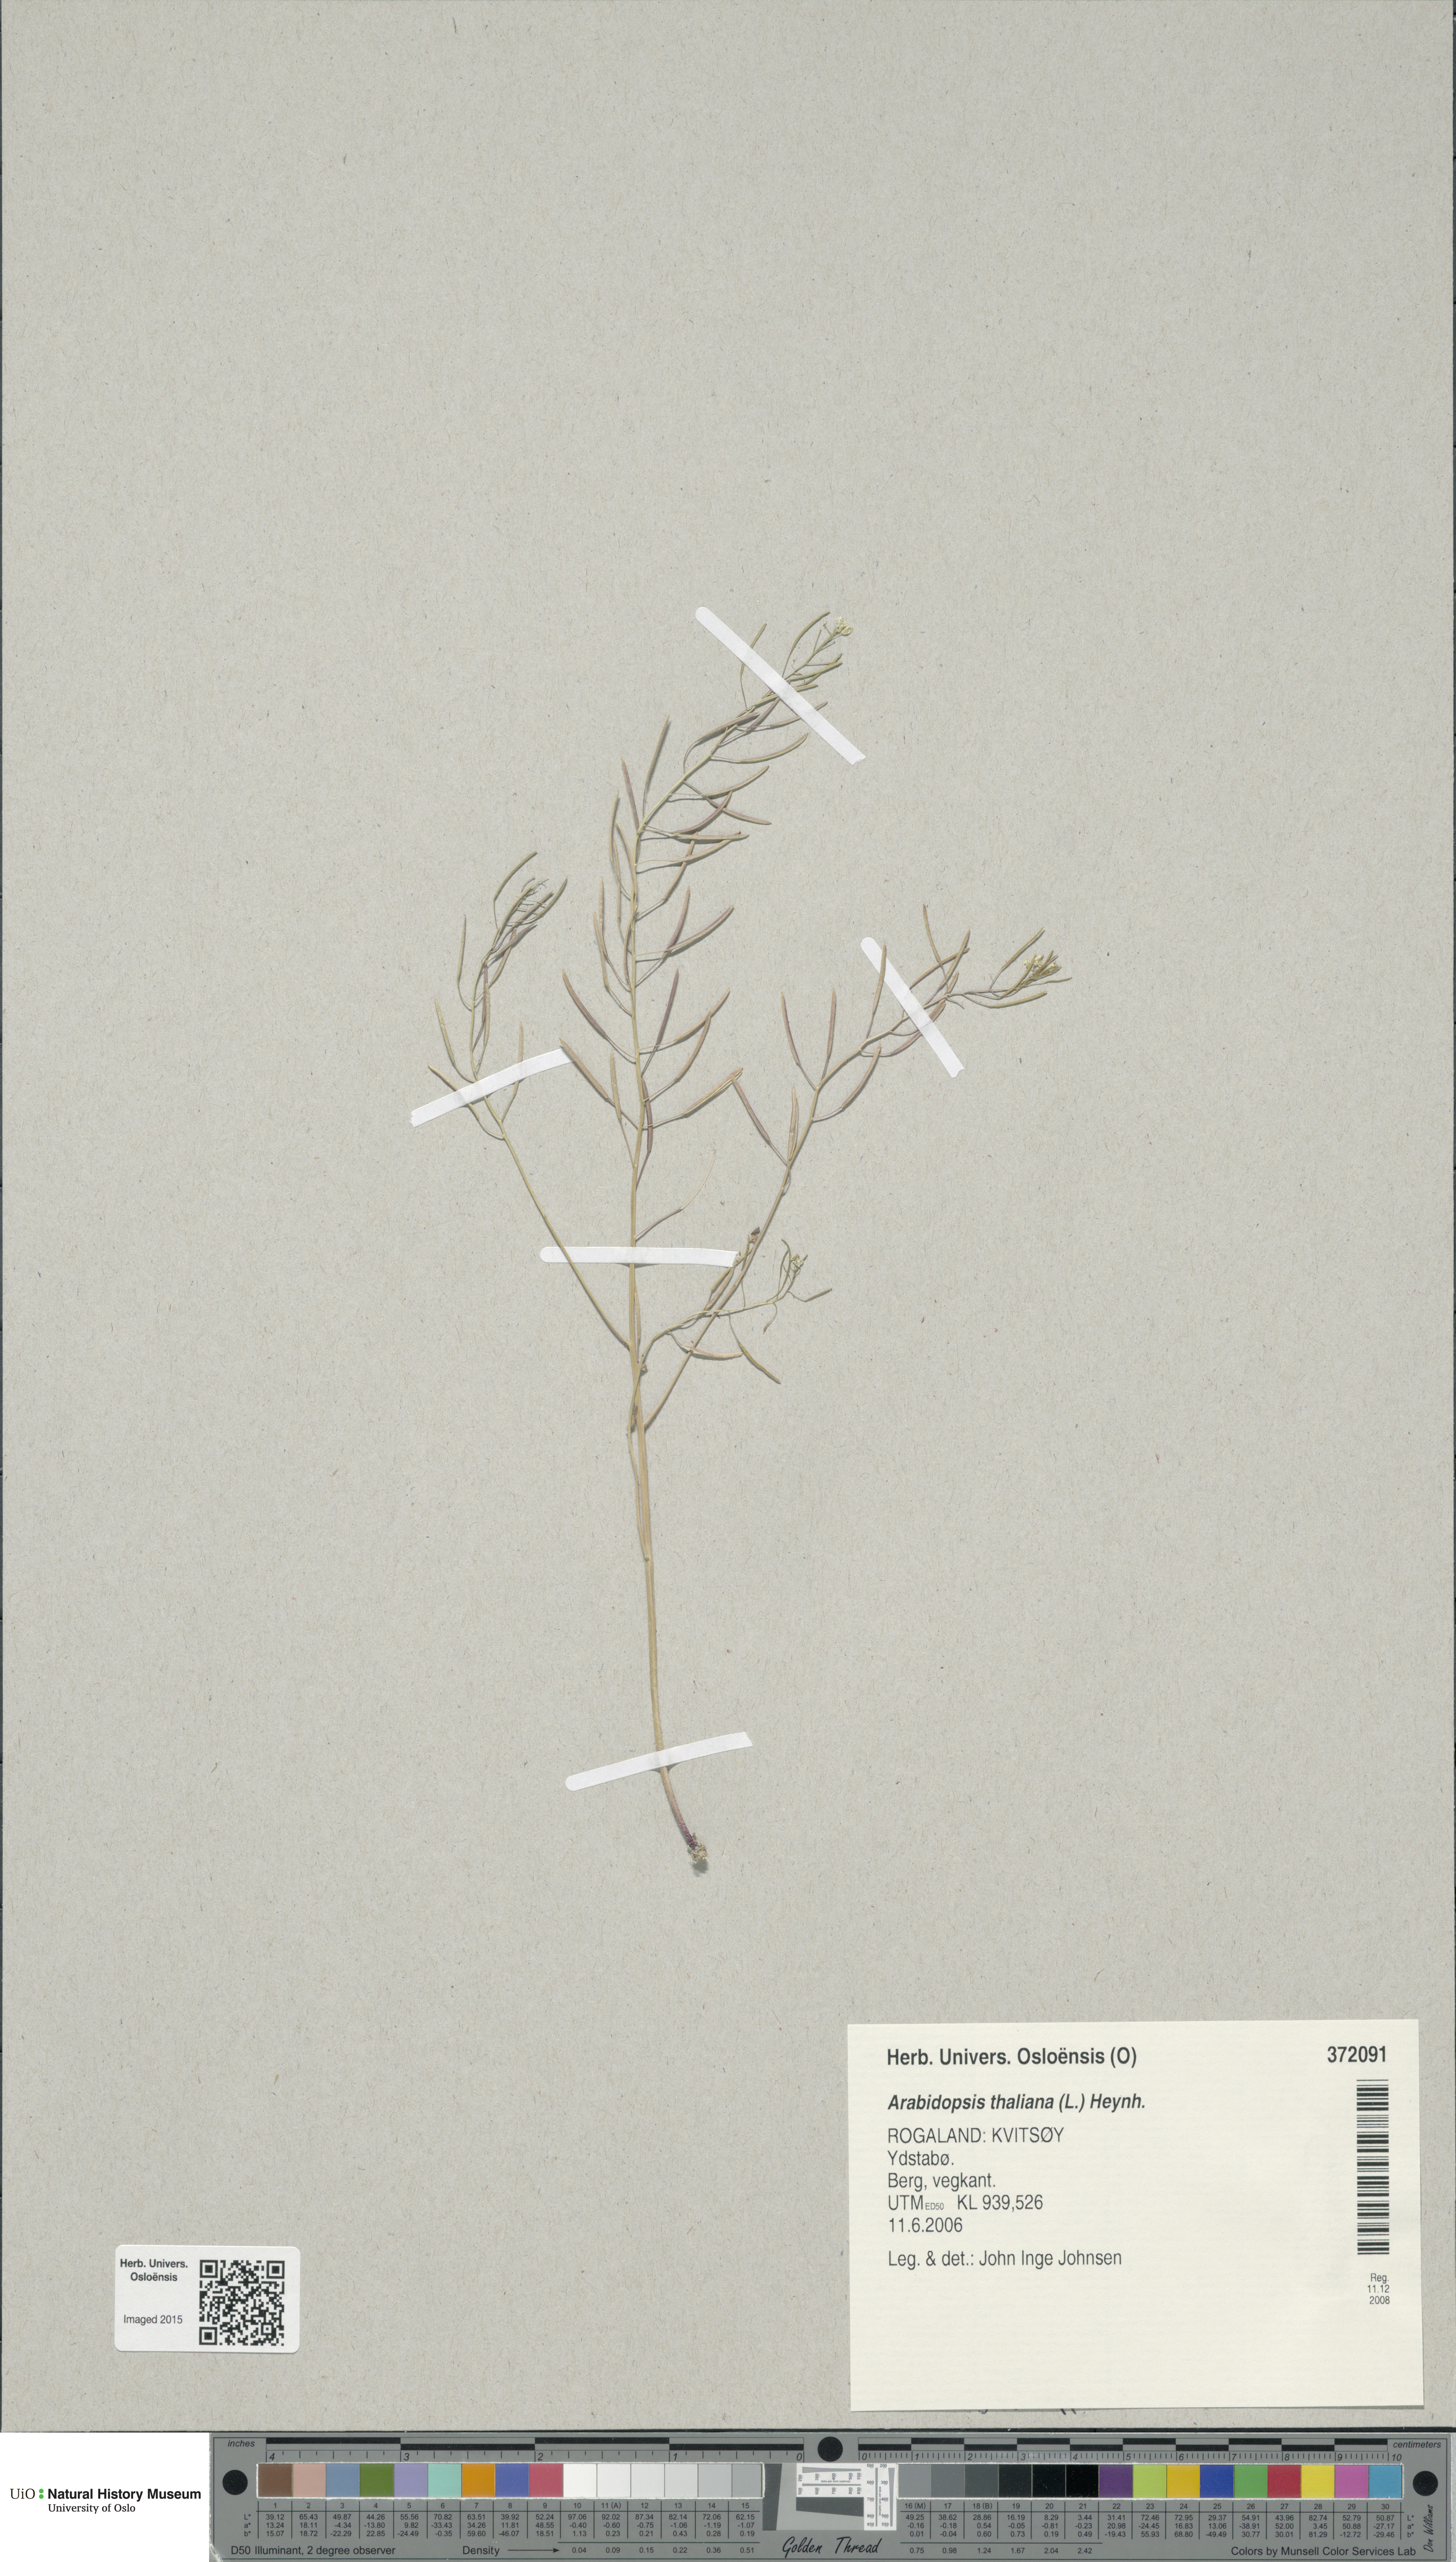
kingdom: Plantae
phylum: Tracheophyta
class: Magnoliopsida
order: Brassicales
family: Brassicaceae
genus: Arabidopsis
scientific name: Arabidopsis thaliana
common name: Thale cress
